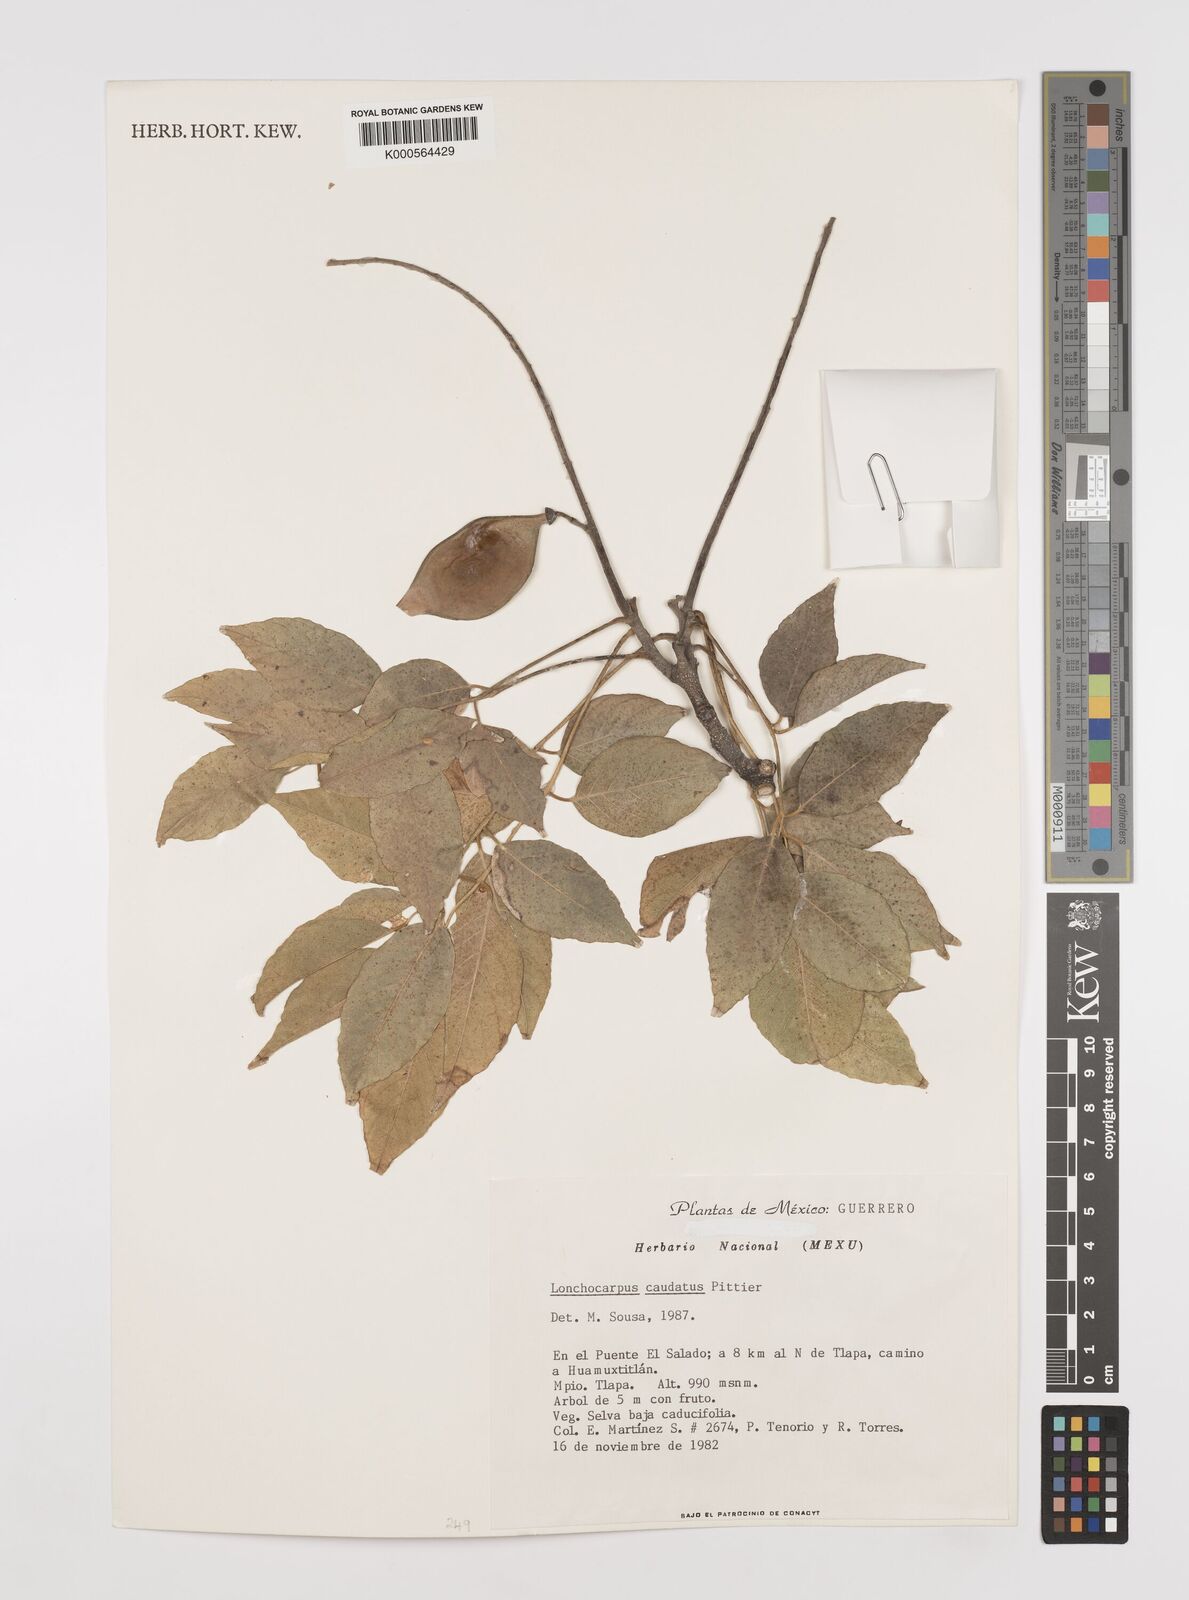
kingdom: Plantae
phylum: Tracheophyta
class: Magnoliopsida
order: Fabales
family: Fabaceae
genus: Lonchocarpus
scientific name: Lonchocarpus caudatus
